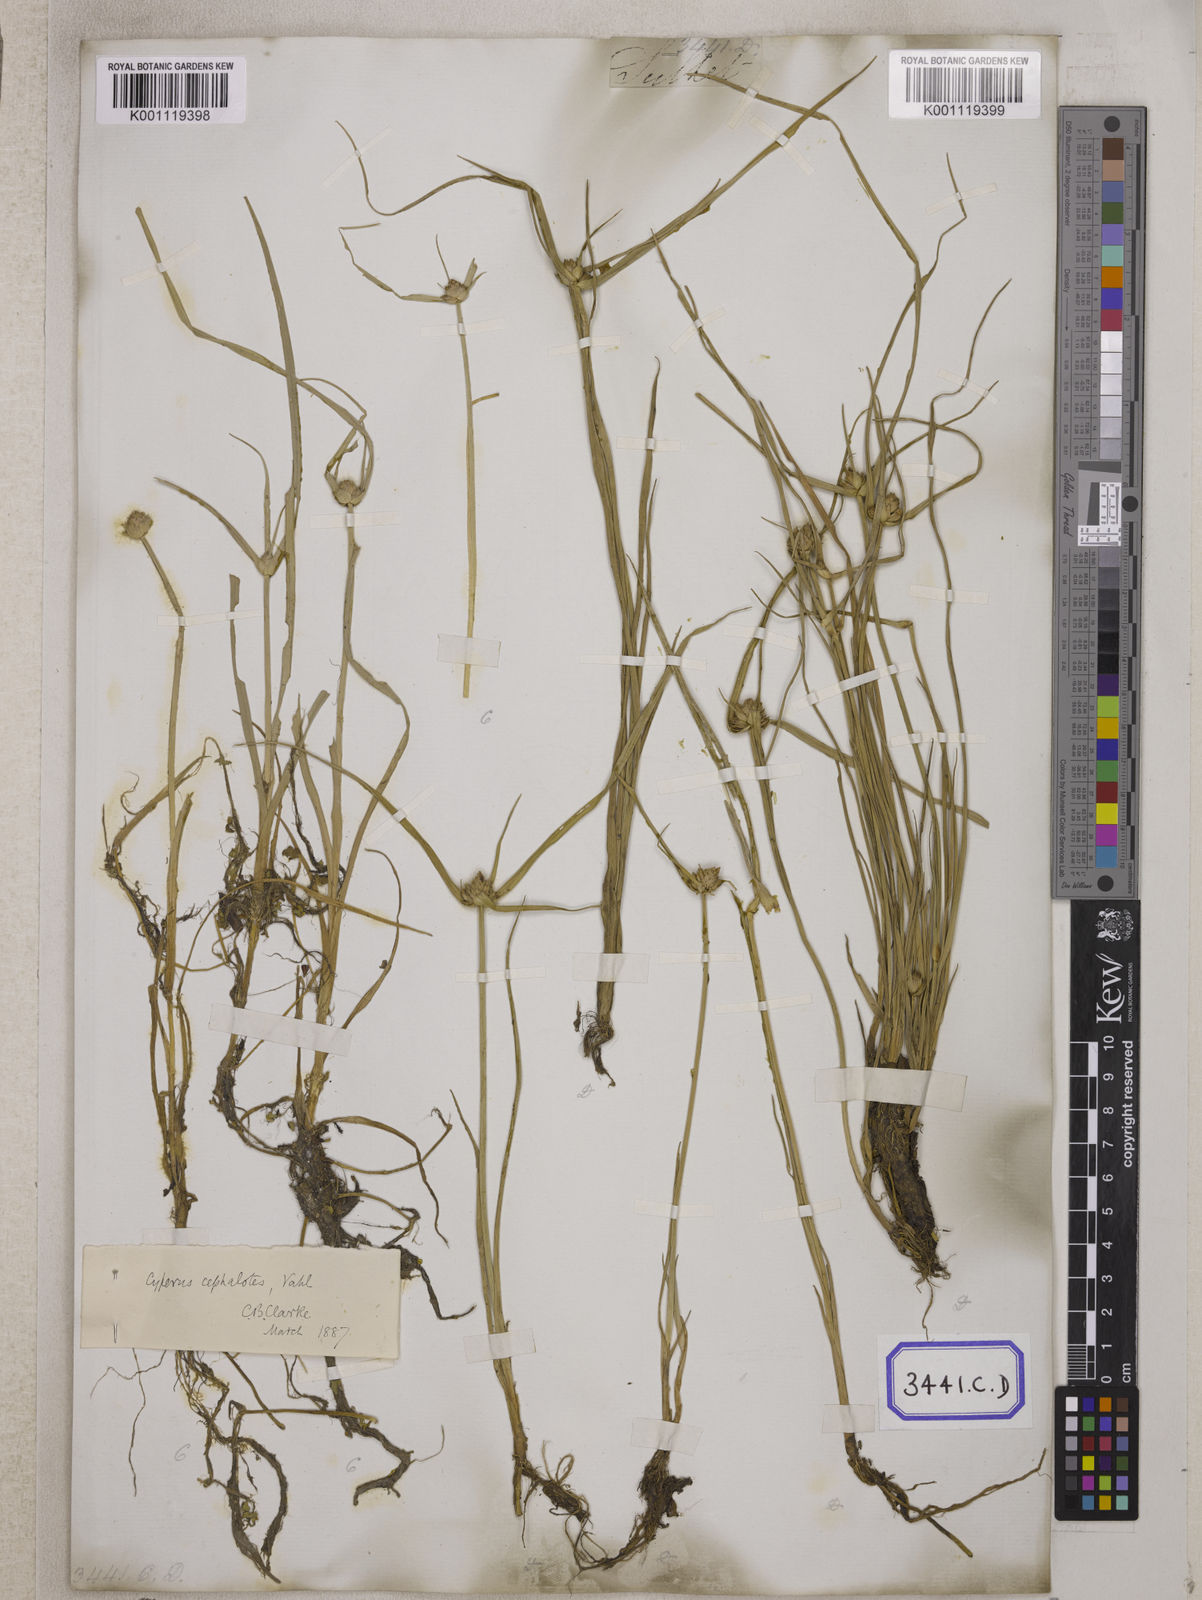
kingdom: Plantae
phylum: Tracheophyta
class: Liliopsida
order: Poales
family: Cyperaceae
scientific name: Cyperaceae
